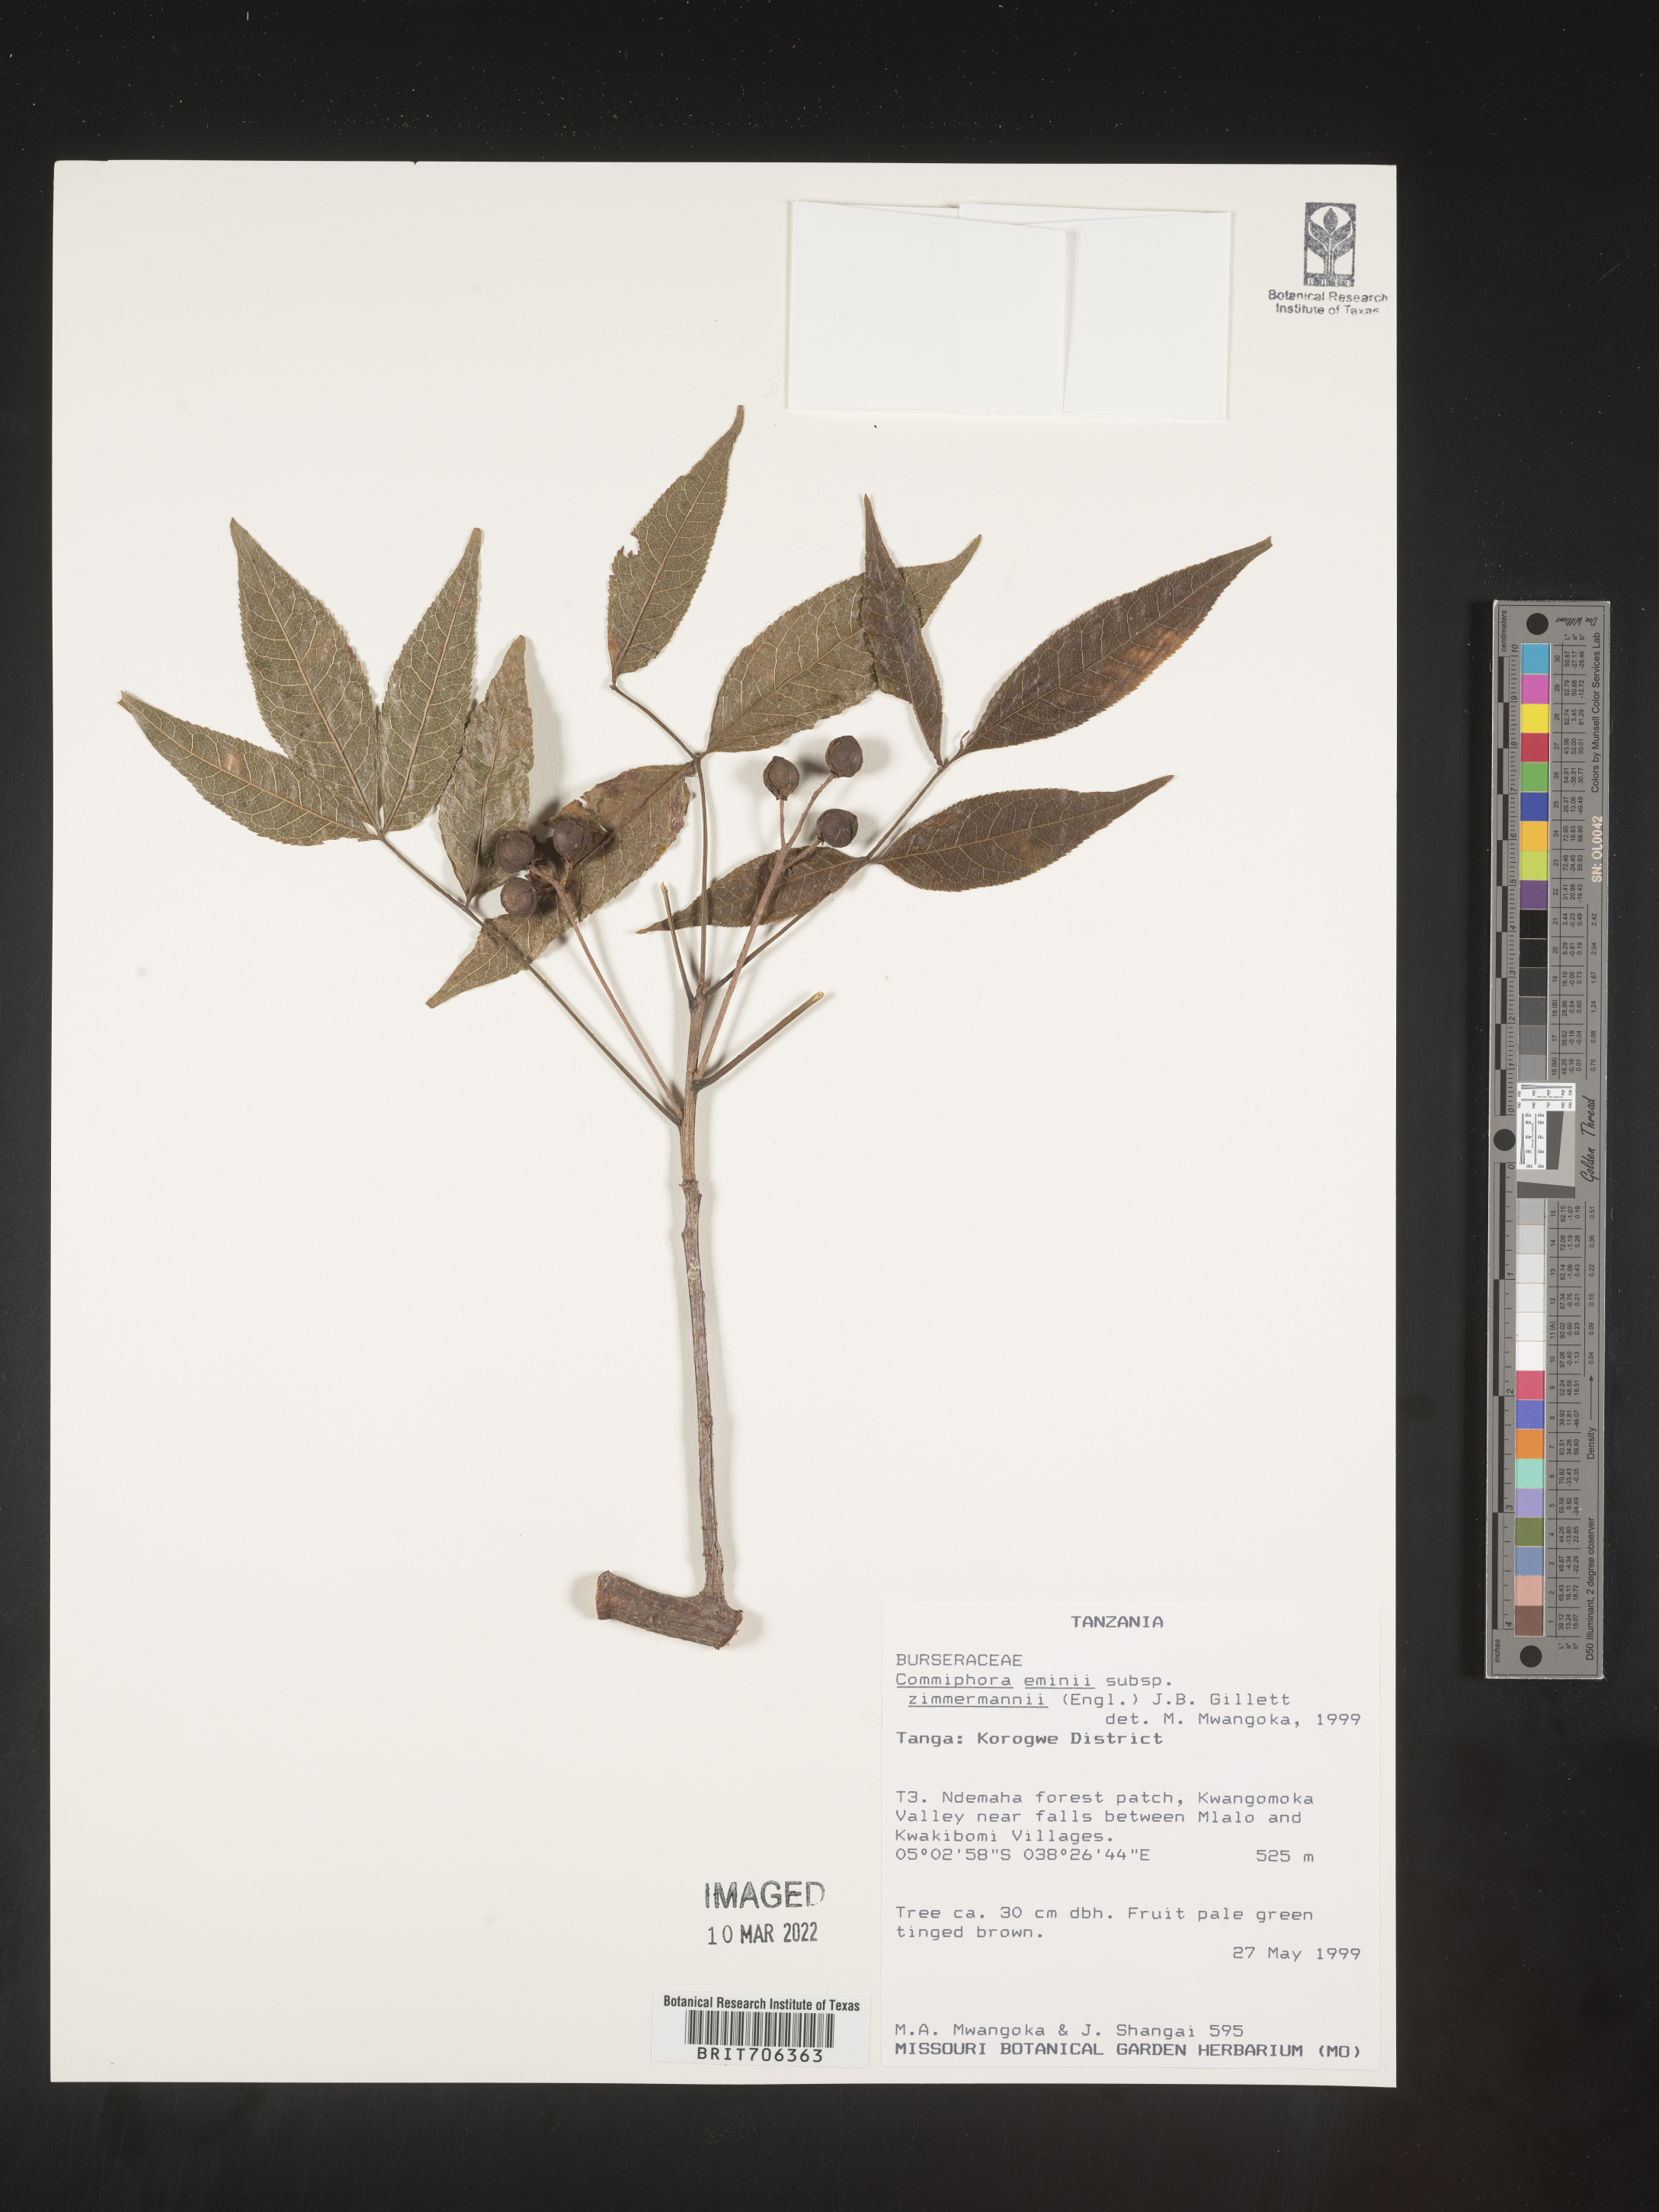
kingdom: Plantae
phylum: Tracheophyta
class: Magnoliopsida
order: Sapindales
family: Burseraceae
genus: Commiphora
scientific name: Commiphora
